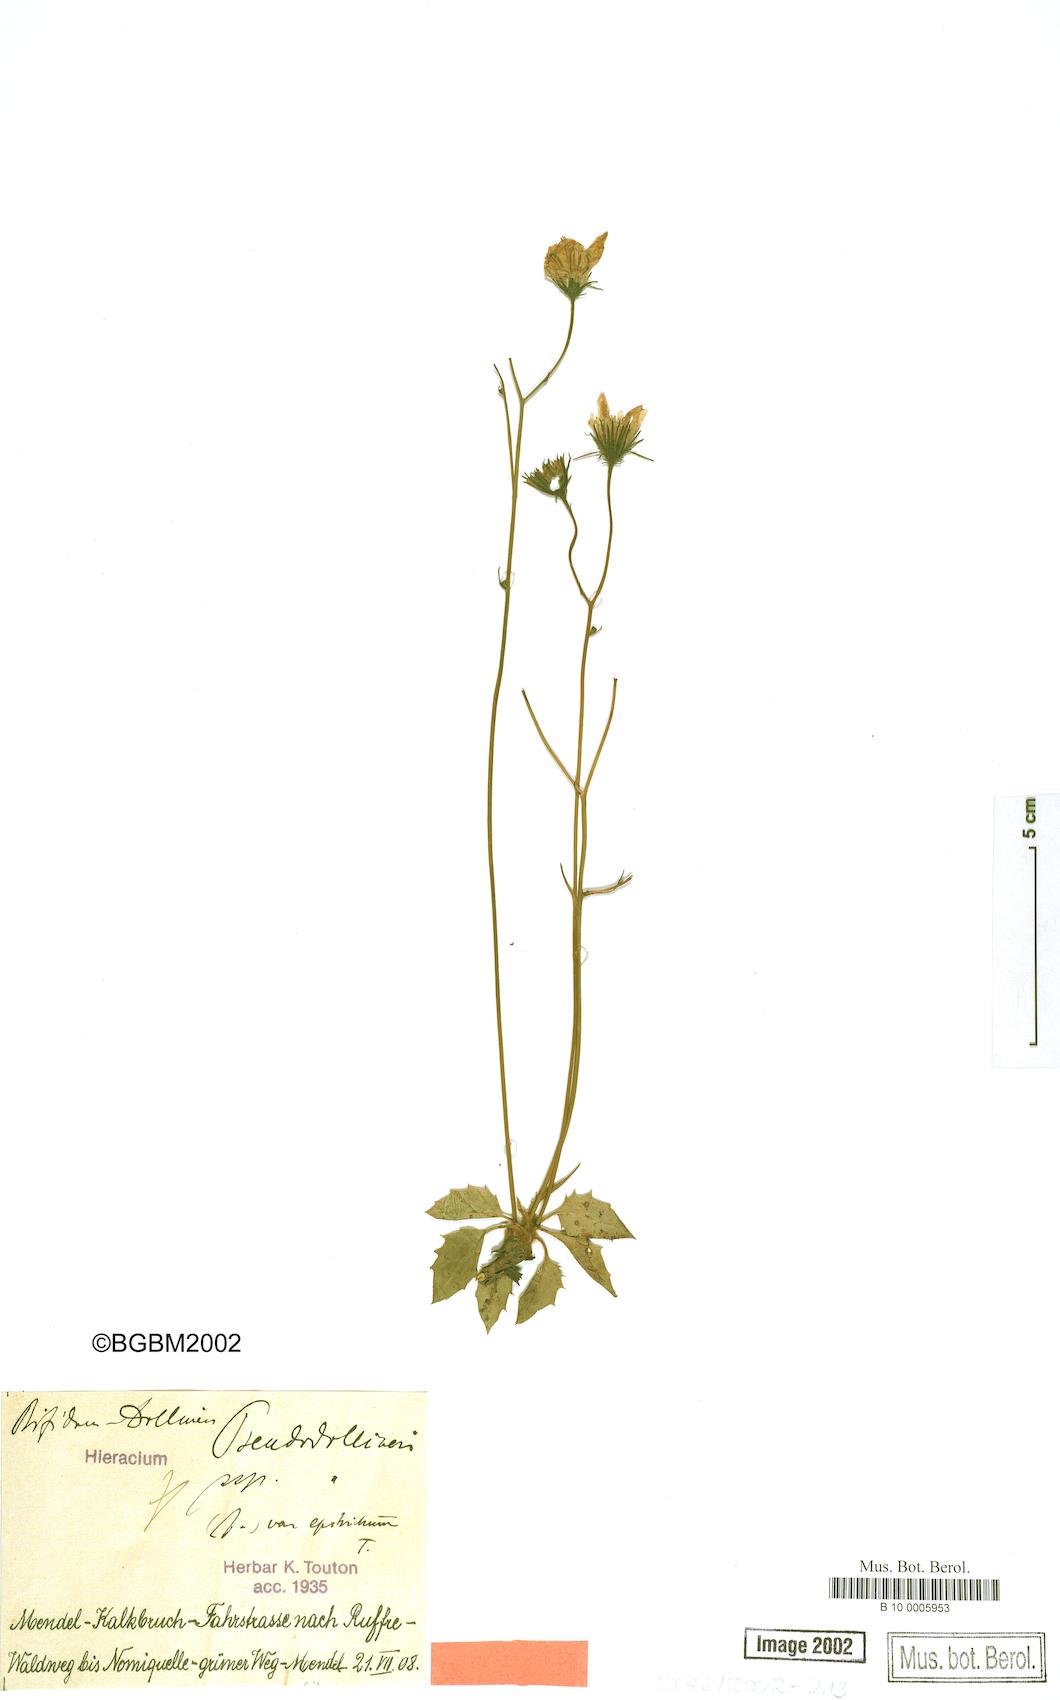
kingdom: Plantae
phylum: Tracheophyta
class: Magnoliopsida
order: Asterales
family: Asteraceae
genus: Hieracium
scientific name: Hieracium bifidum
